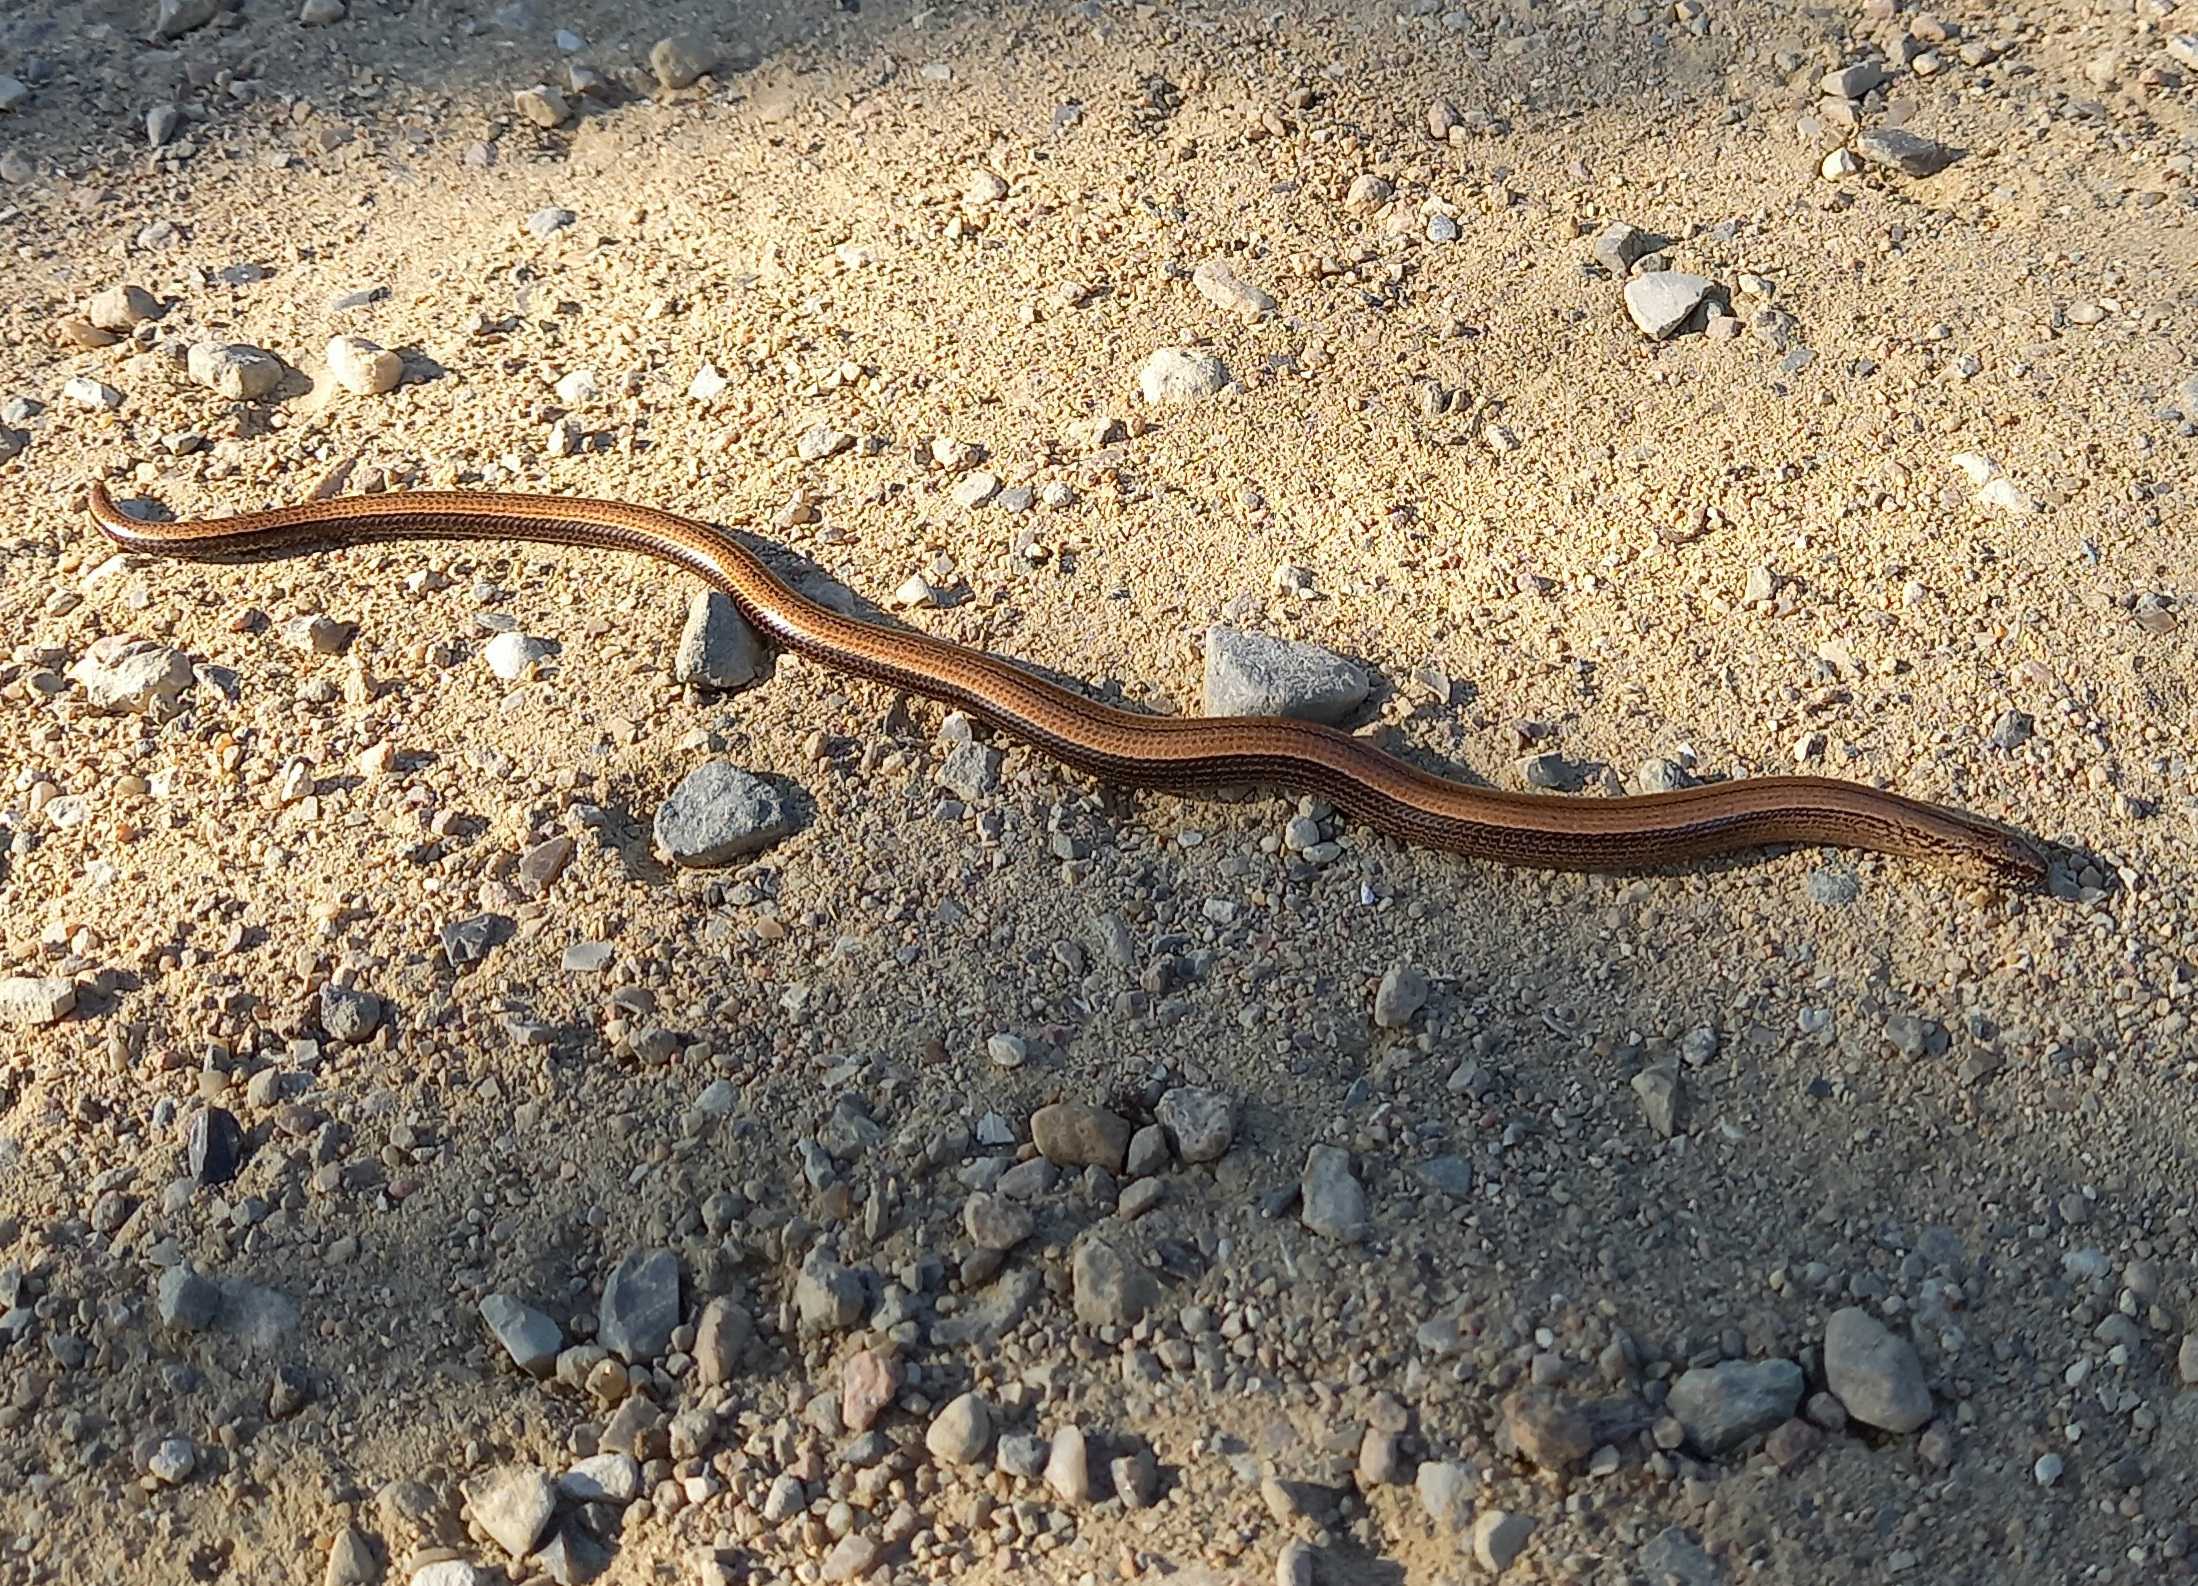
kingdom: Animalia
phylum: Chordata
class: Squamata
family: Anguidae
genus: Anguis
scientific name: Anguis fragilis
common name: Stålorm
